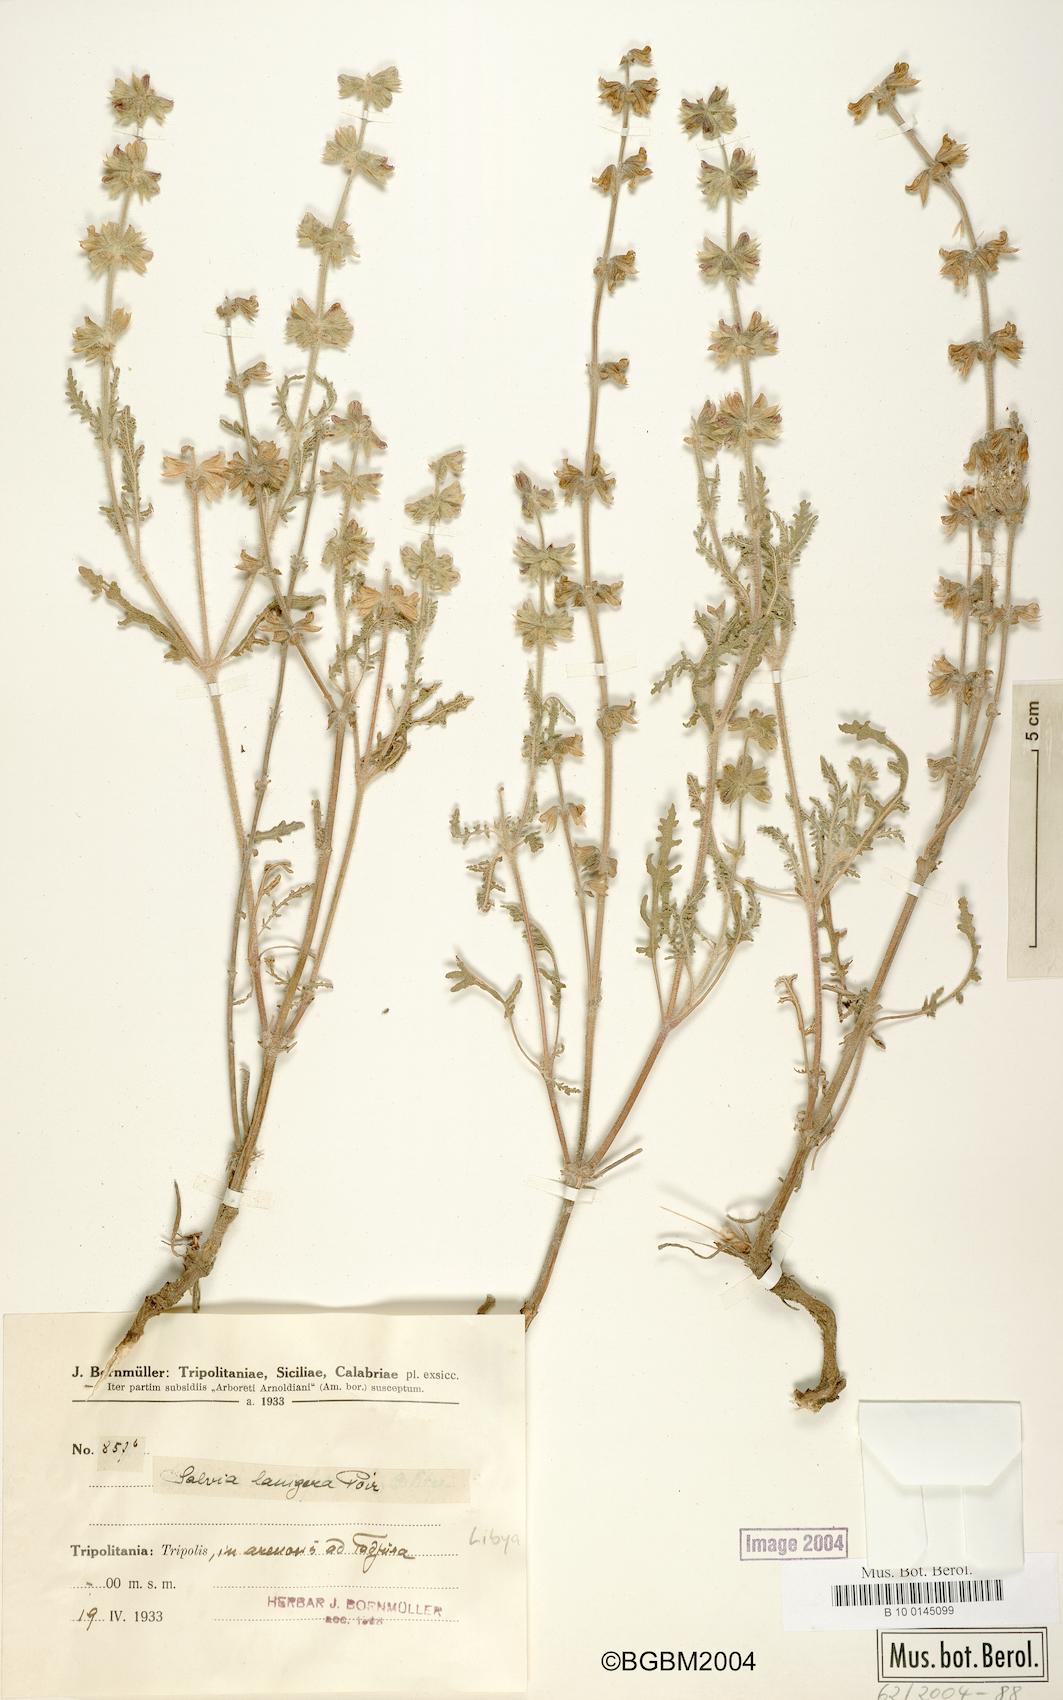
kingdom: Plantae
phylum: Tracheophyta
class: Magnoliopsida
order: Lamiales
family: Lamiaceae
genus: Salvia
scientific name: Salvia lanigera
